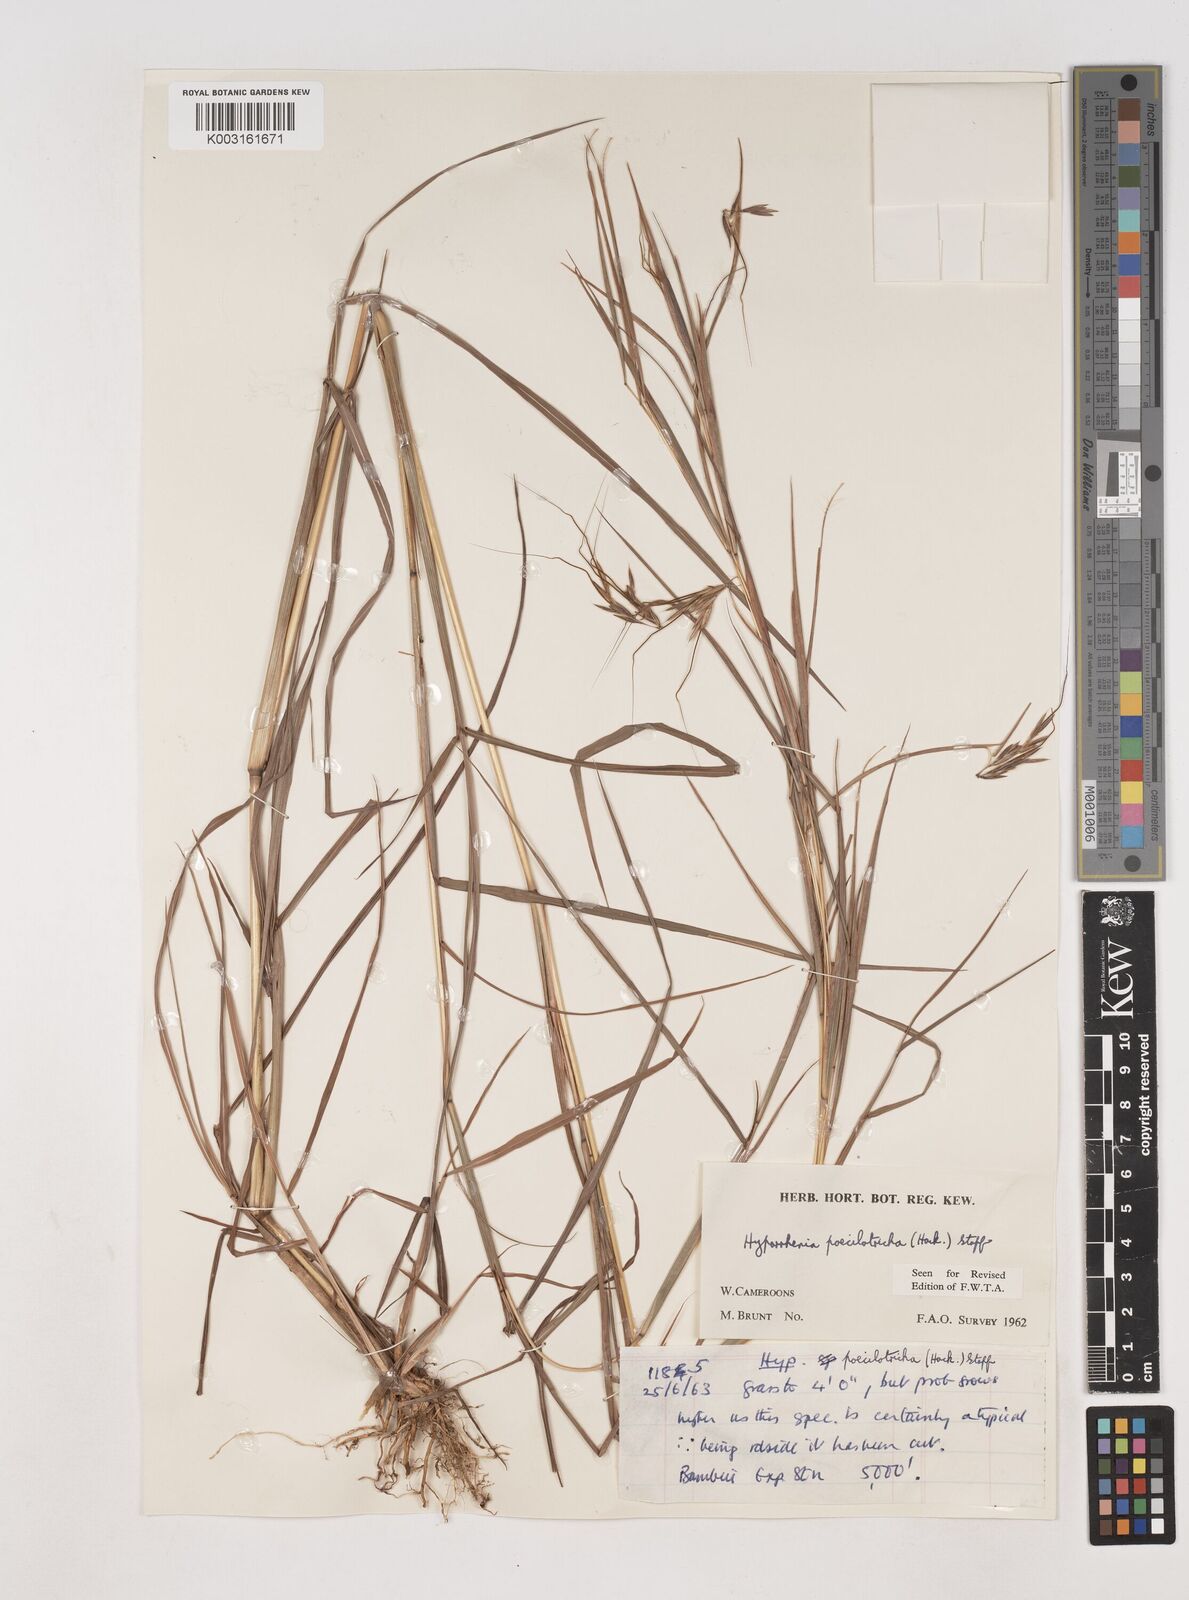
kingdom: Plantae
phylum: Tracheophyta
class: Liliopsida
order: Poales
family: Poaceae
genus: Hyparrhenia
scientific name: Hyparrhenia poecilotricha
